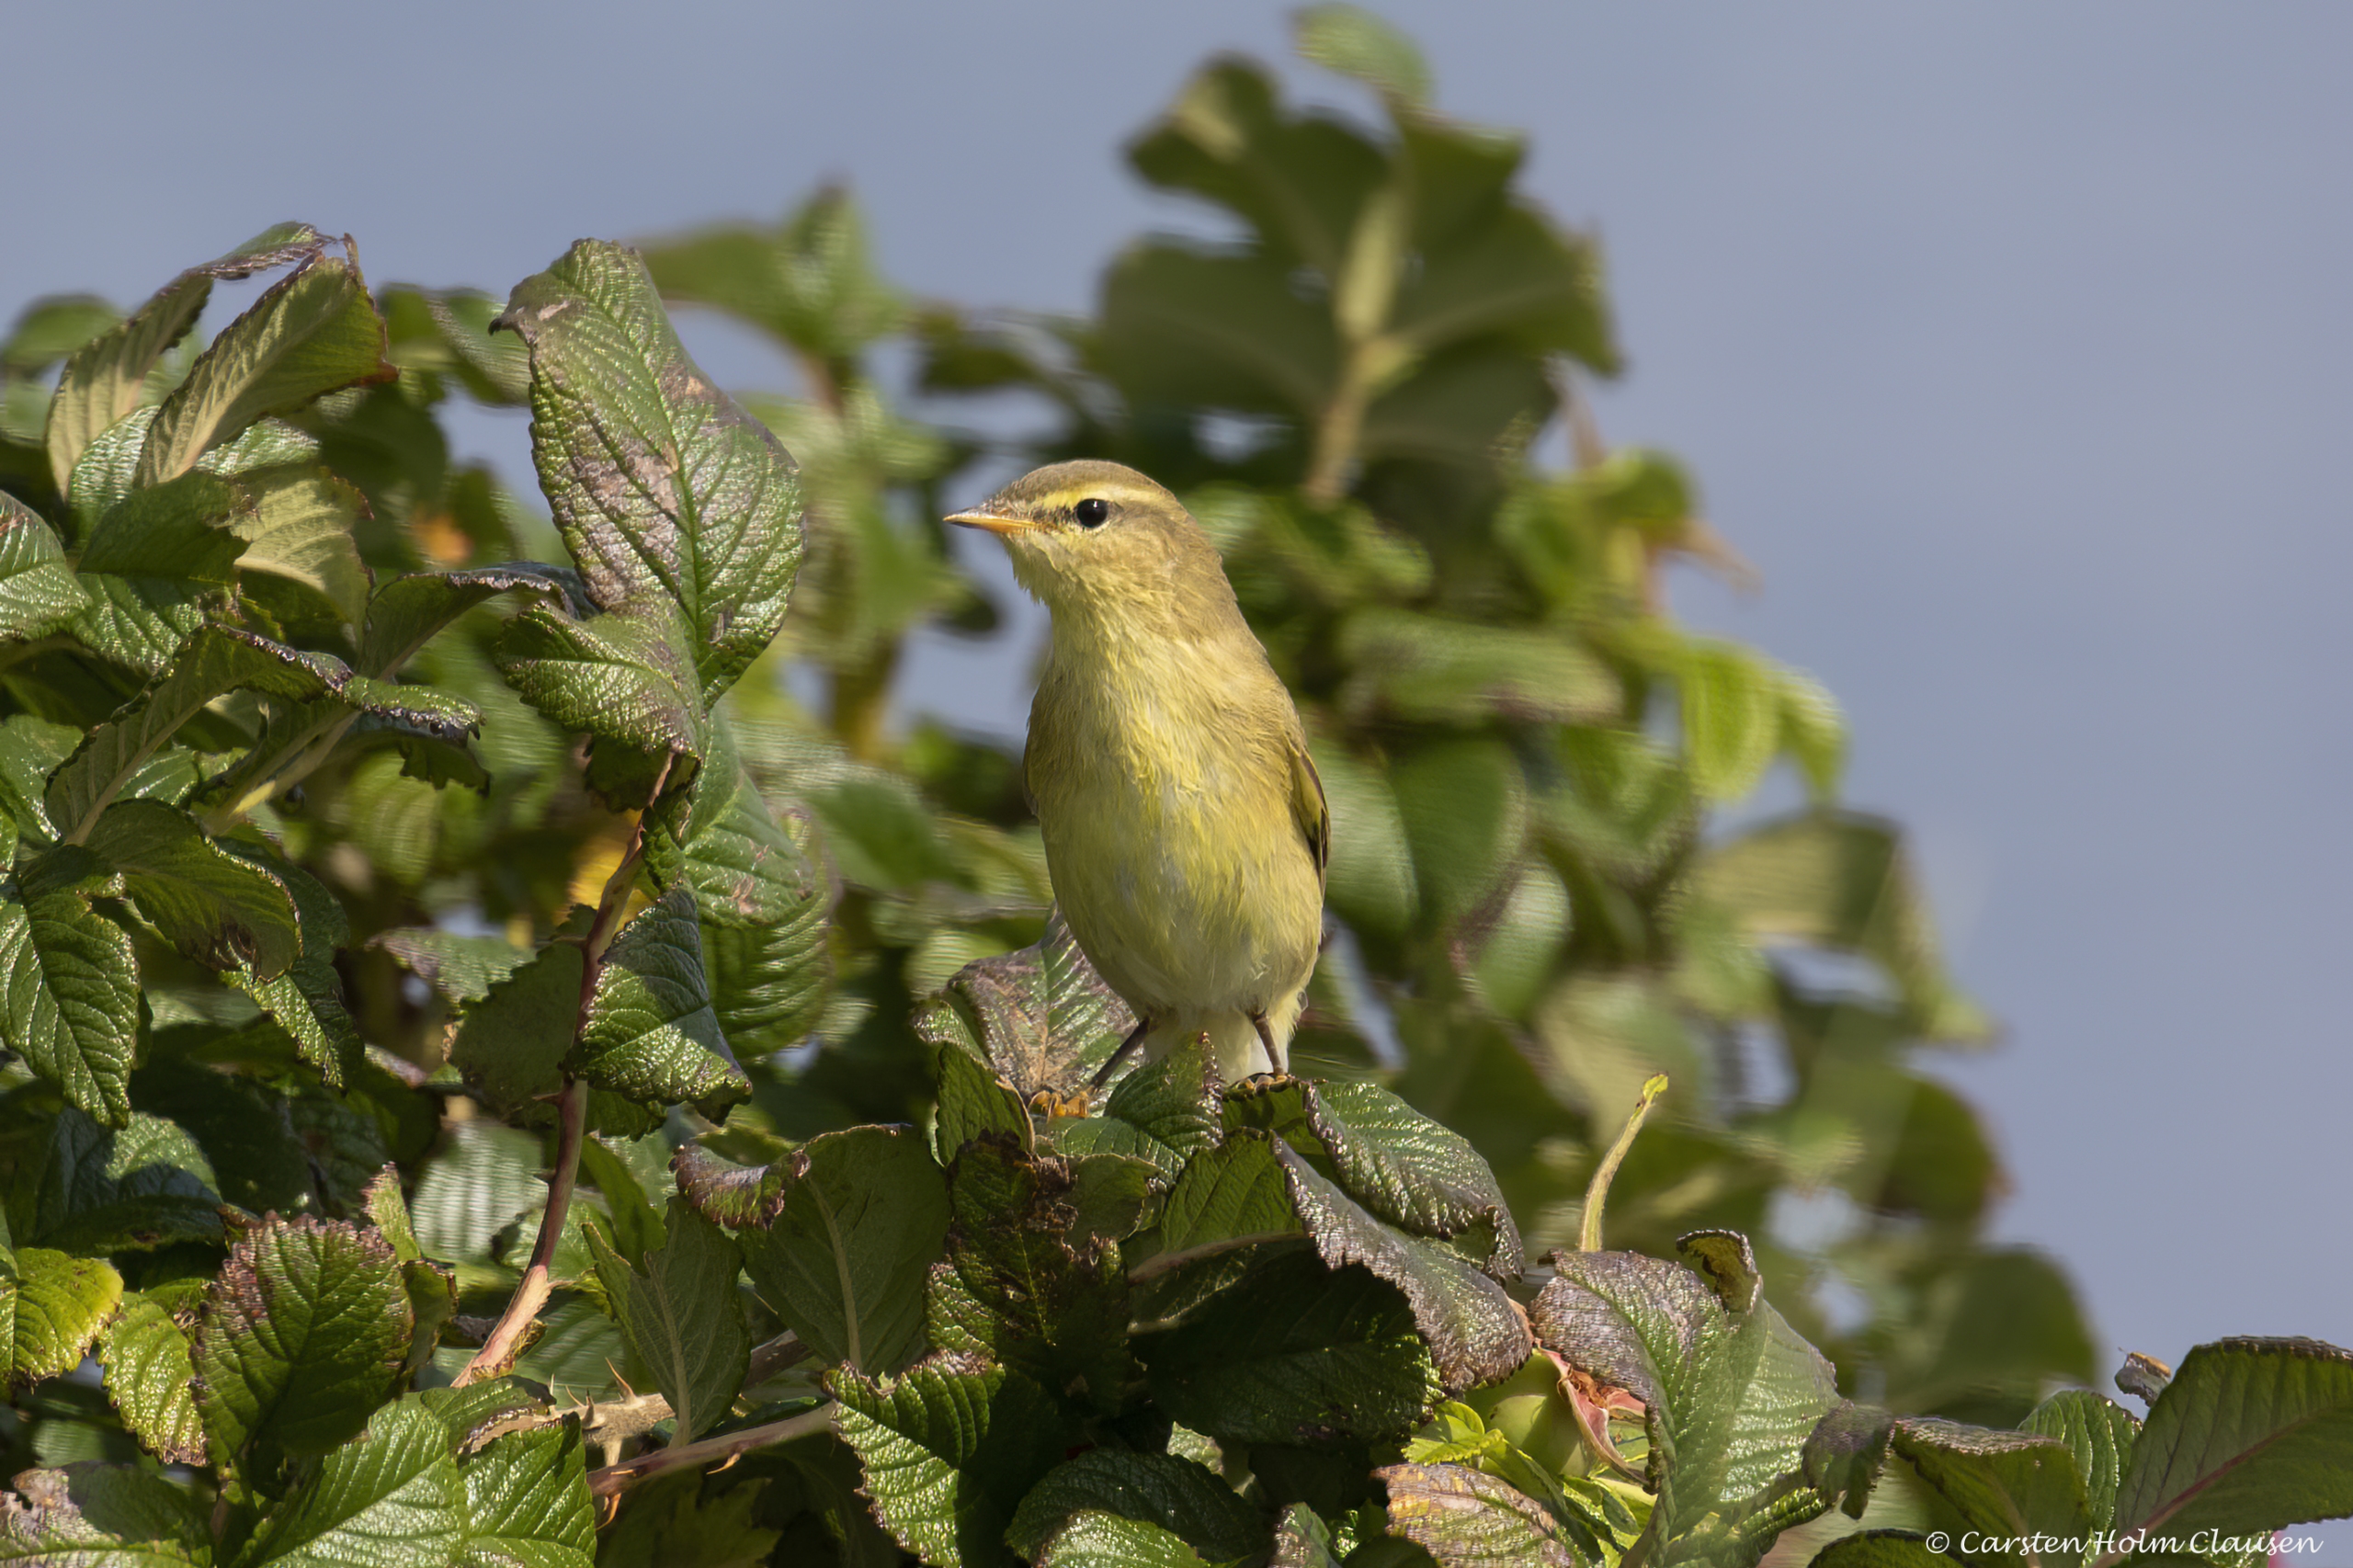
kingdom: Animalia
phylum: Chordata
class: Aves
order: Passeriformes
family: Phylloscopidae
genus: Phylloscopus
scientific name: Phylloscopus trochilus
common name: Løvsanger
